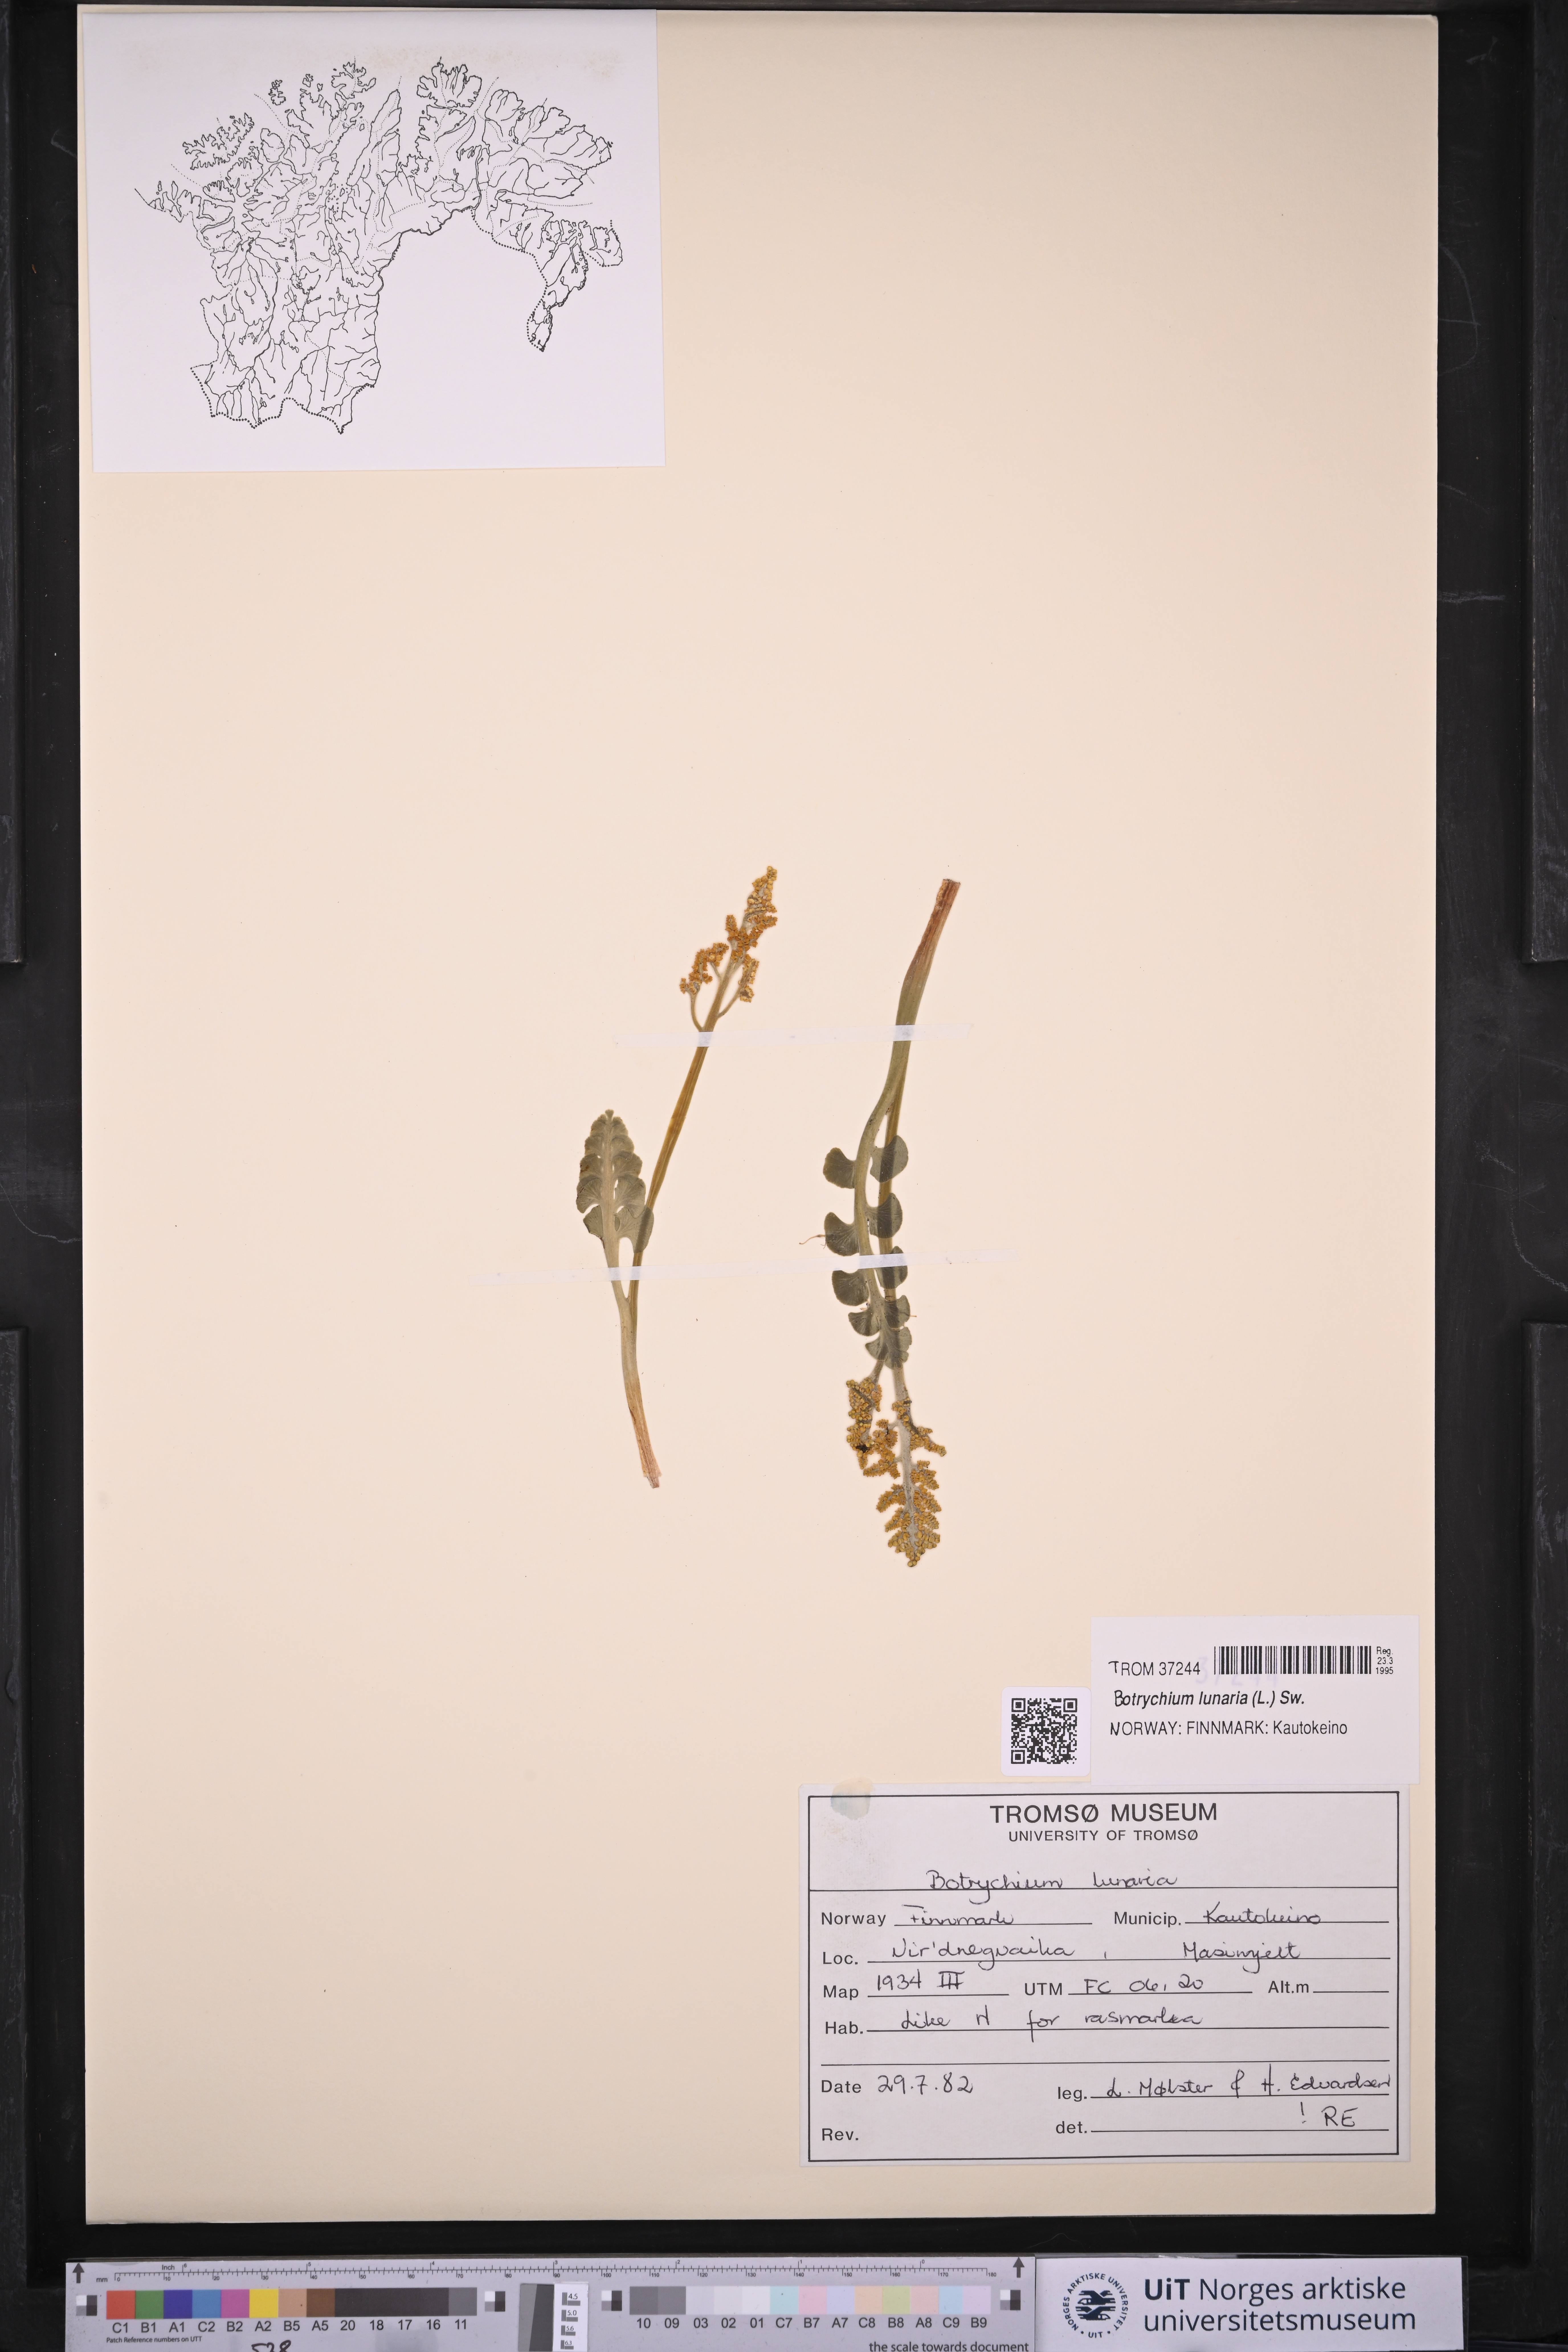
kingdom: Plantae
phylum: Tracheophyta
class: Polypodiopsida
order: Ophioglossales
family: Ophioglossaceae
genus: Botrychium
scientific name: Botrychium lunaria
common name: Moonwort
